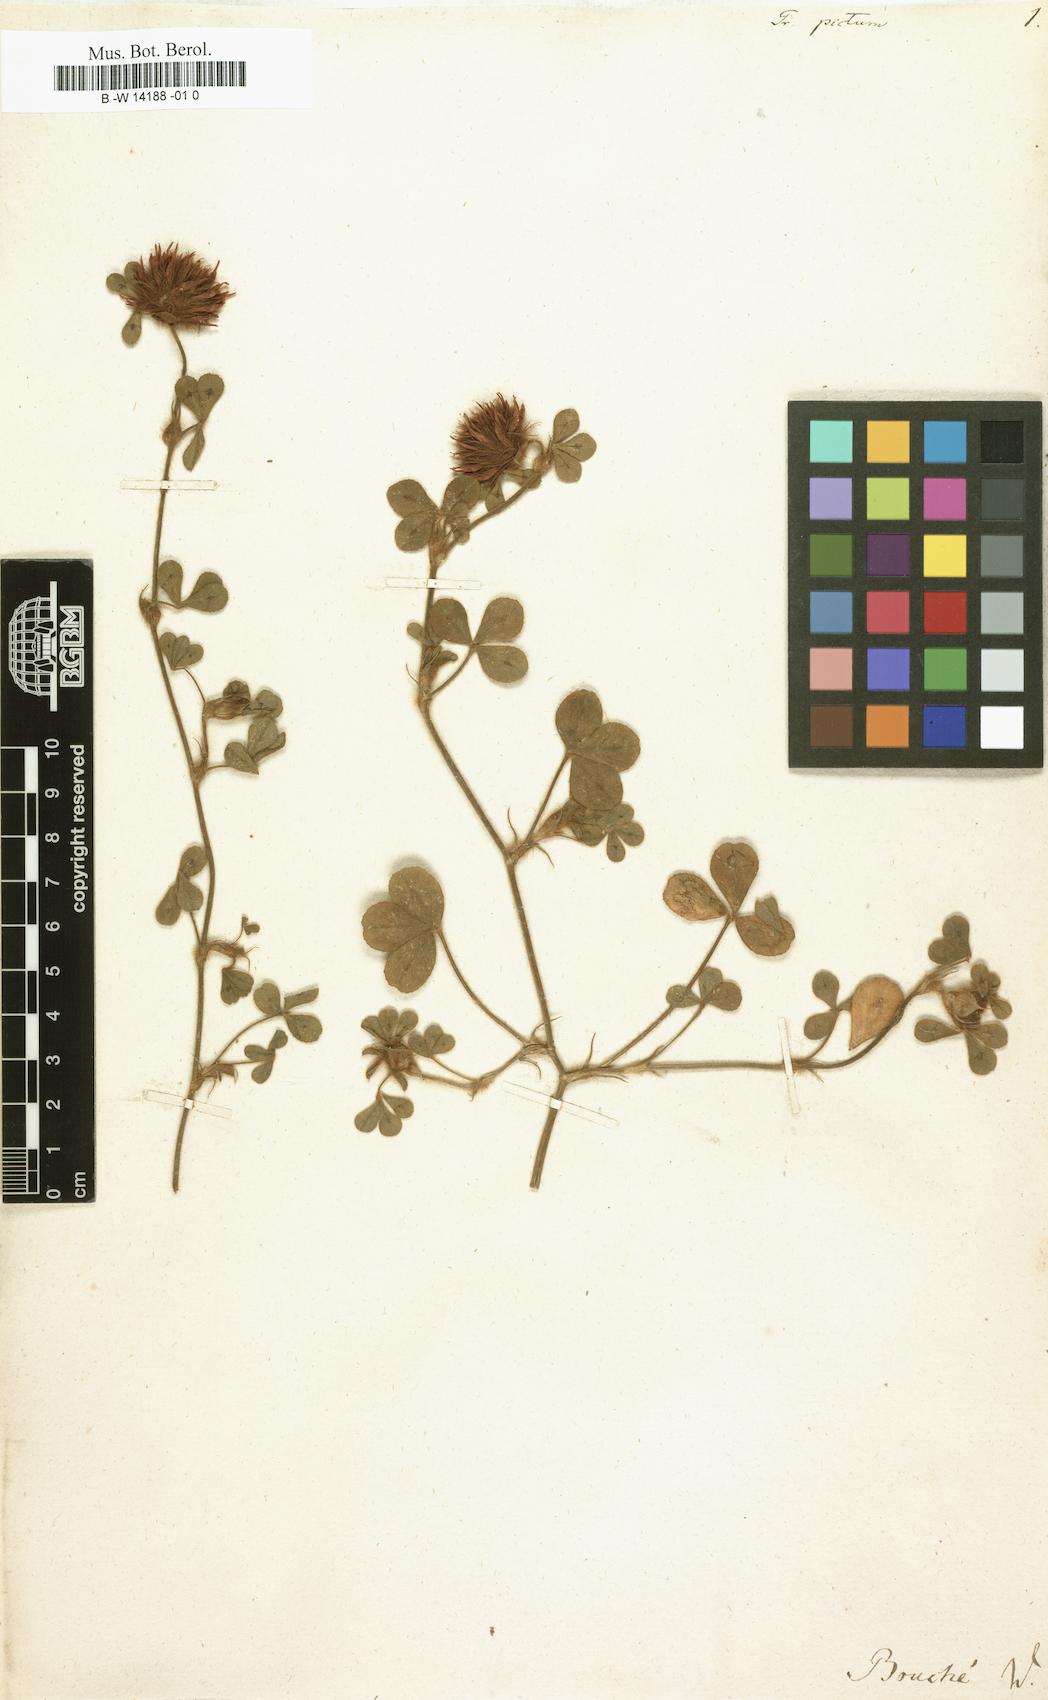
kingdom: Plantae
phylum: Tracheophyta
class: Magnoliopsida
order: Fabales
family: Fabaceae
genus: Trifolium
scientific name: Trifolium hirtum
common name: Rose clover
